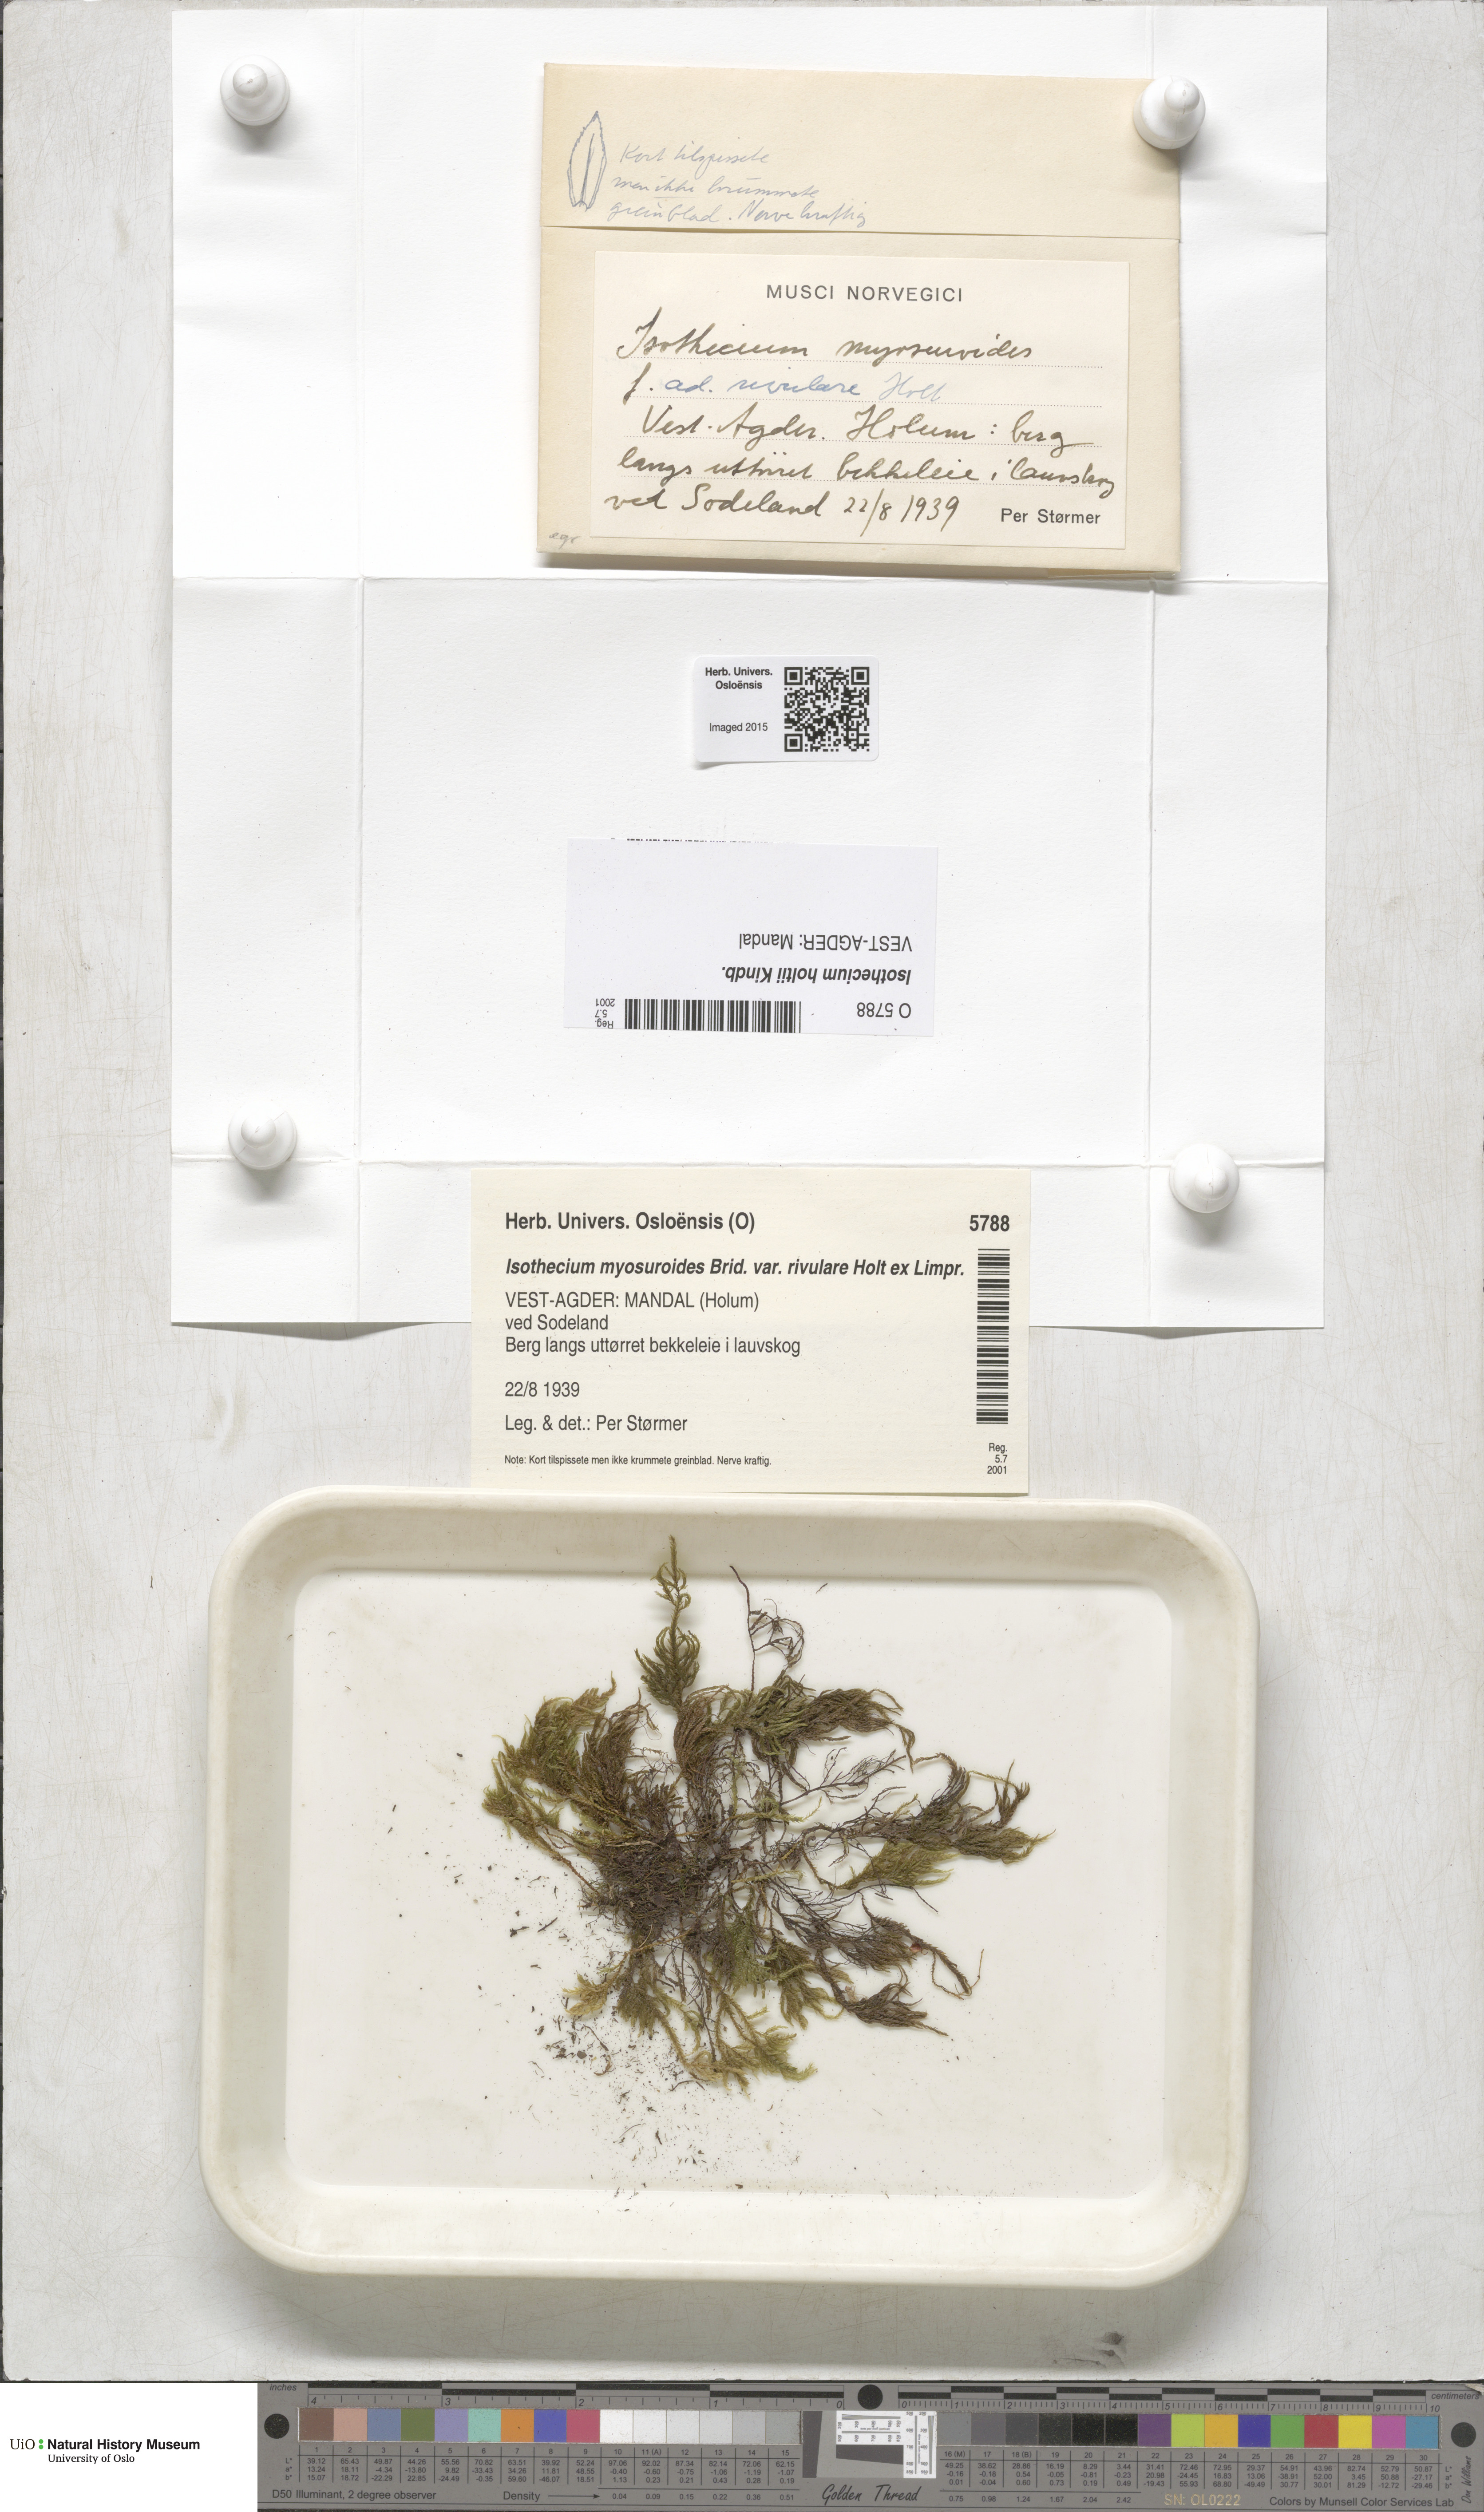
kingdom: Plantae
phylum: Bryophyta
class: Bryopsida
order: Hypnales
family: Lembophyllaceae
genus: Pseudisothecium
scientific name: Pseudisothecium holtii
